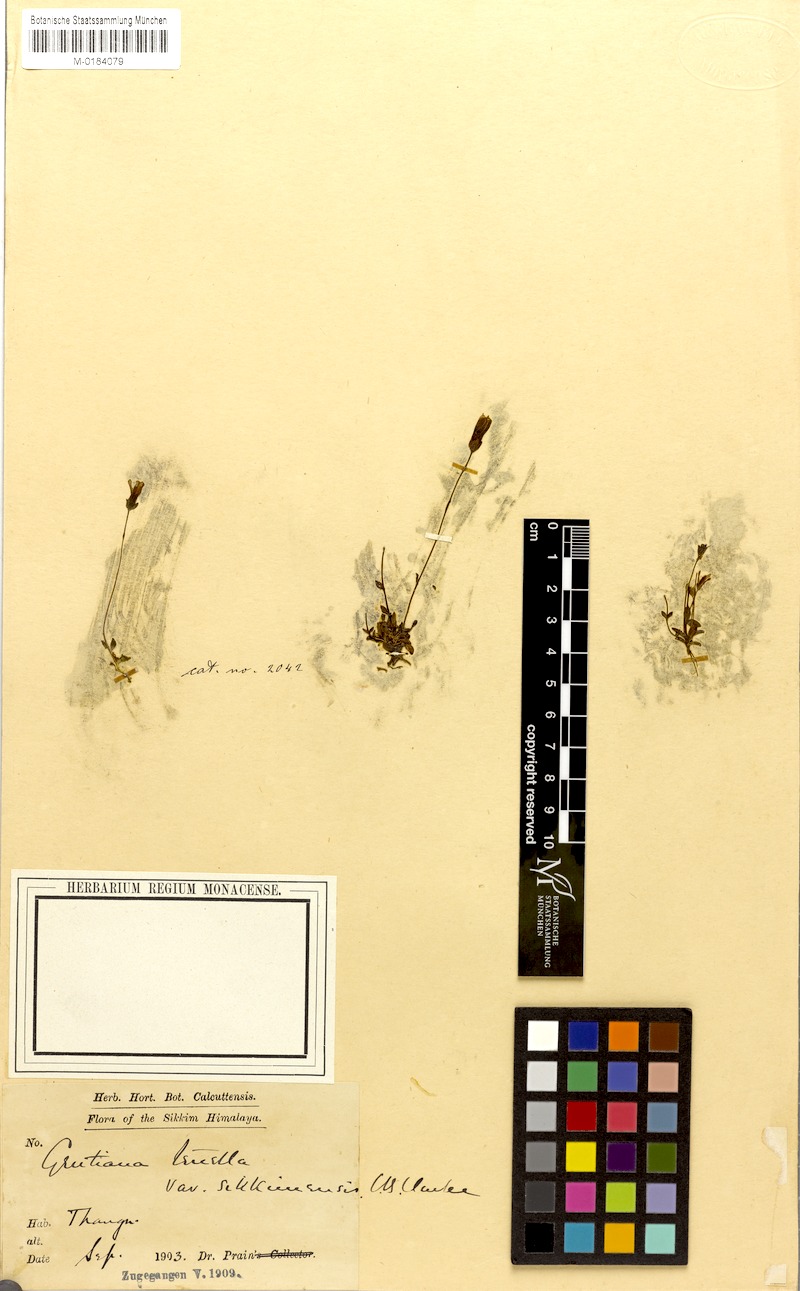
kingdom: Plantae
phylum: Tracheophyta
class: Magnoliopsida
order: Gentianales
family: Gentianaceae
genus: Comastoma
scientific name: Comastoma pedunculatum
